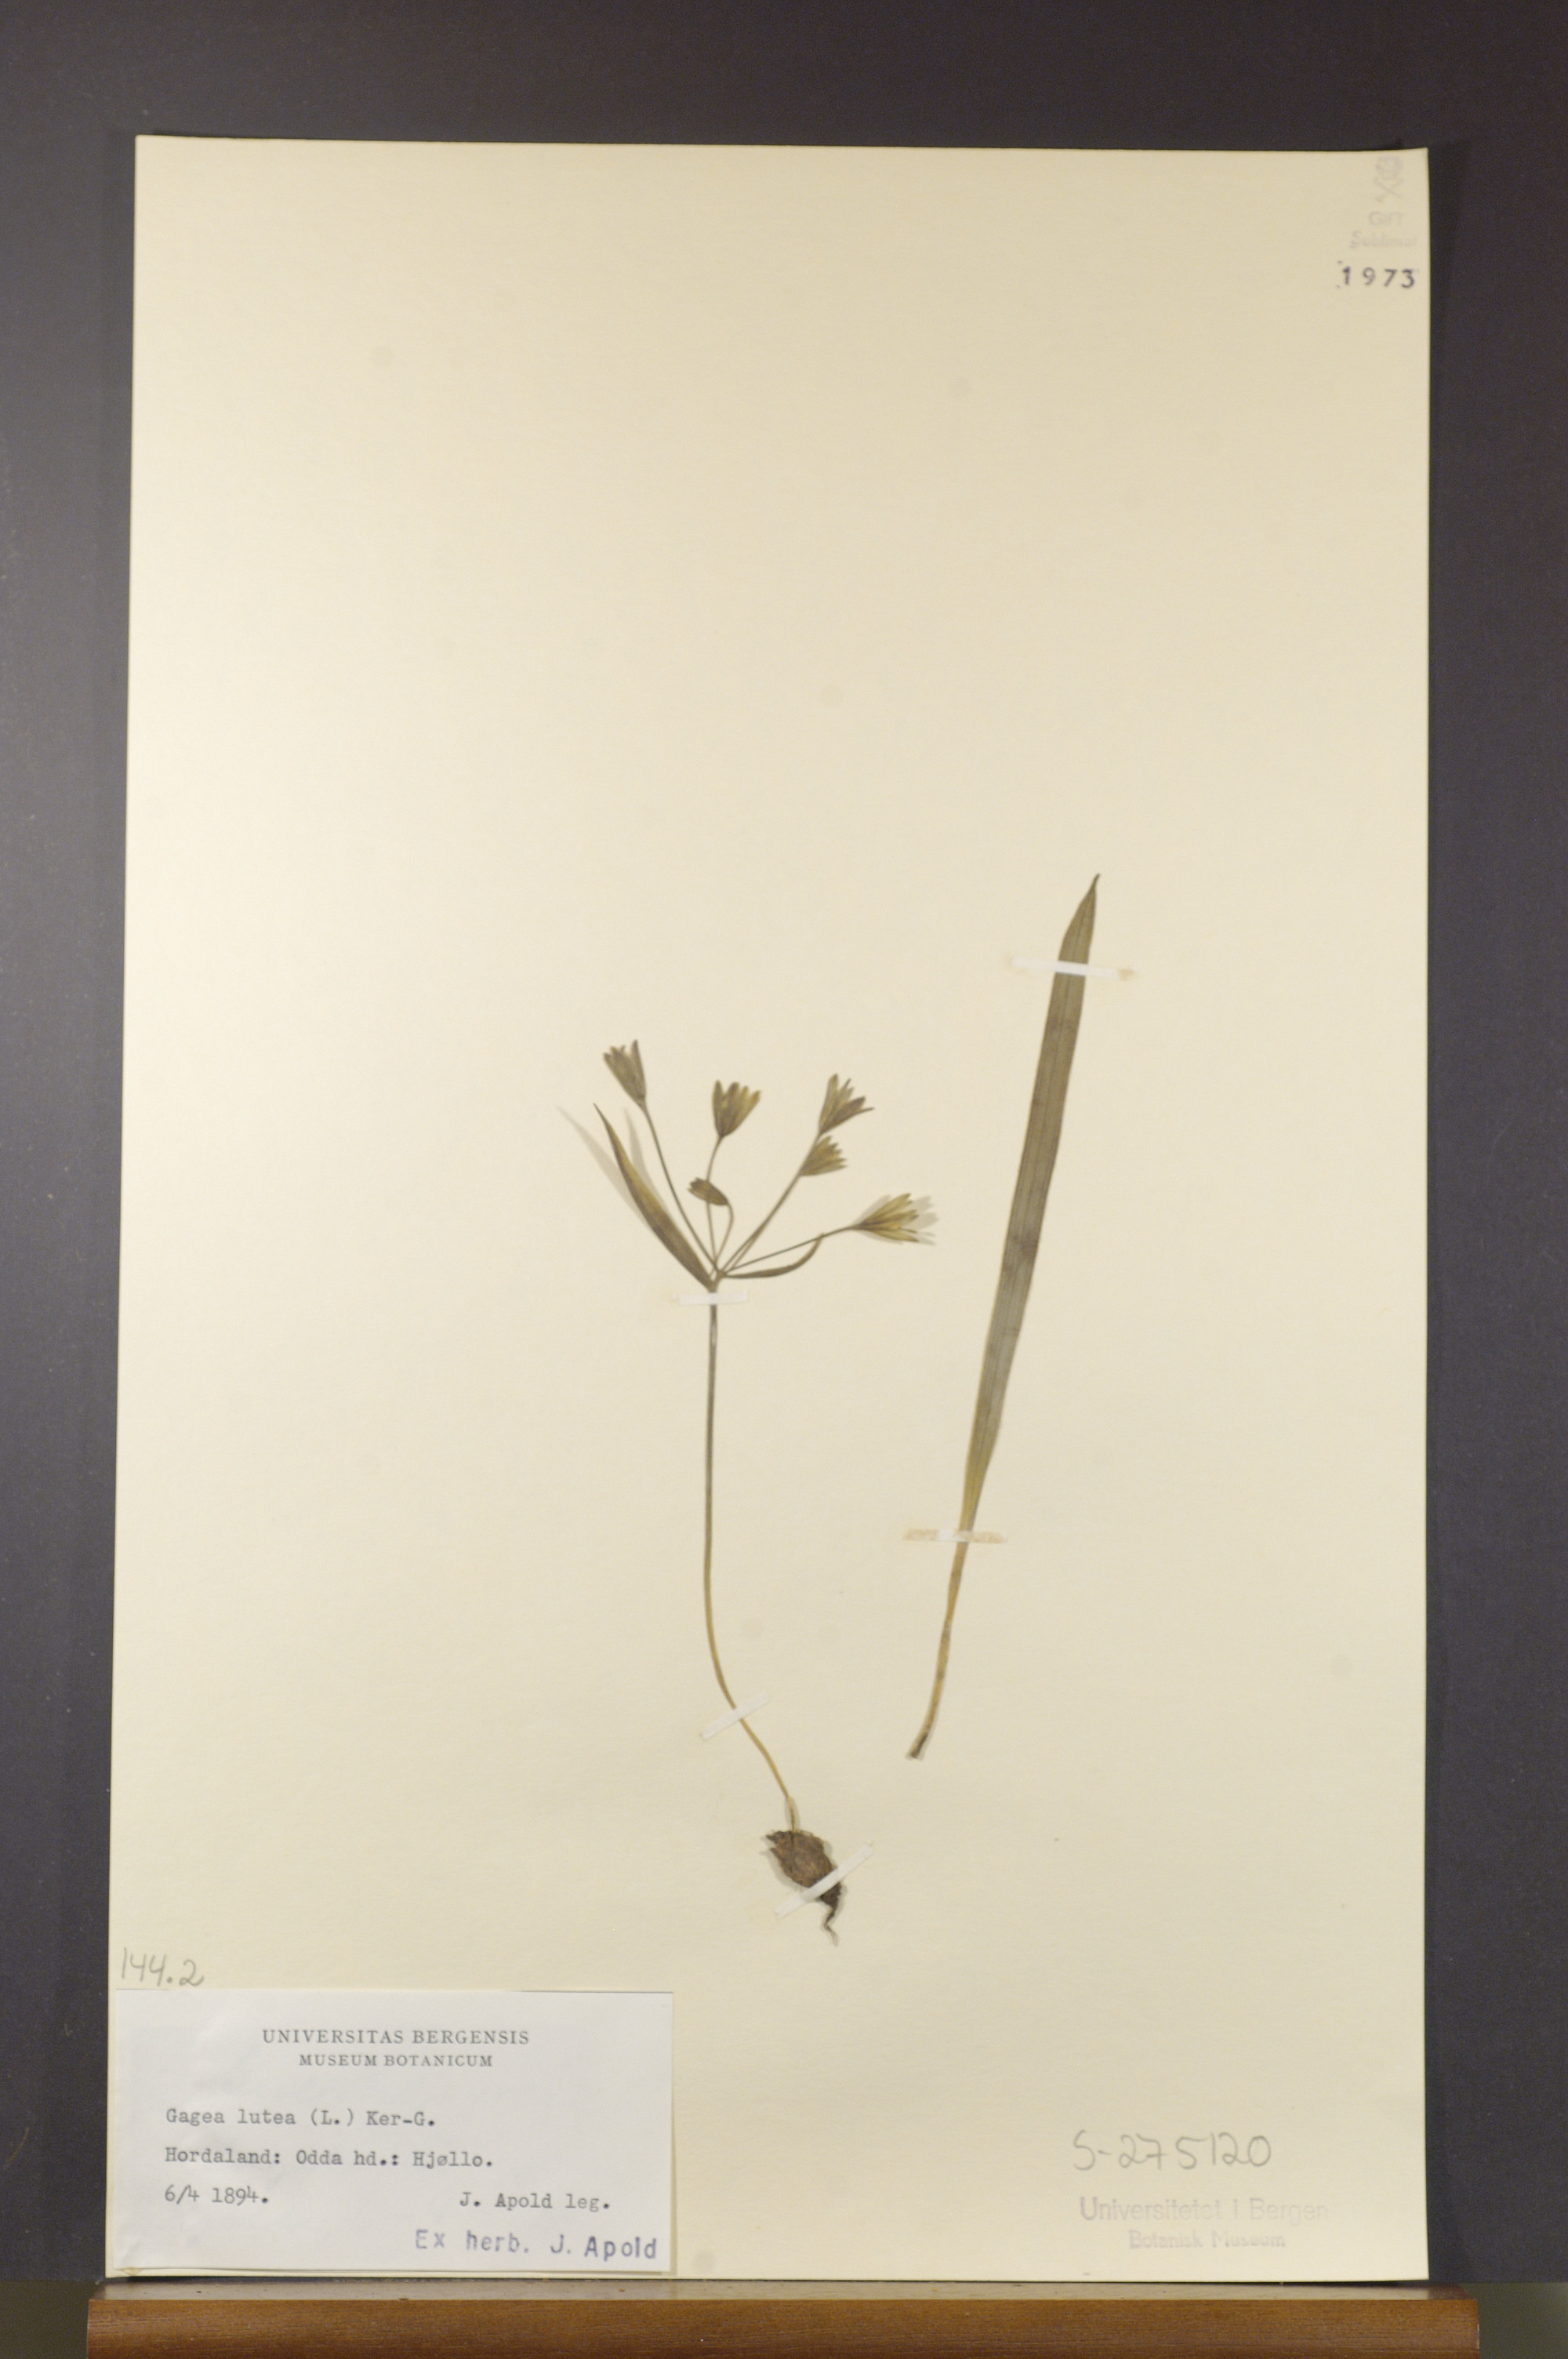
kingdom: Plantae
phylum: Tracheophyta
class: Liliopsida
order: Liliales
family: Liliaceae
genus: Gagea
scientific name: Gagea lutea
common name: Yellow star-of-bethlehem
